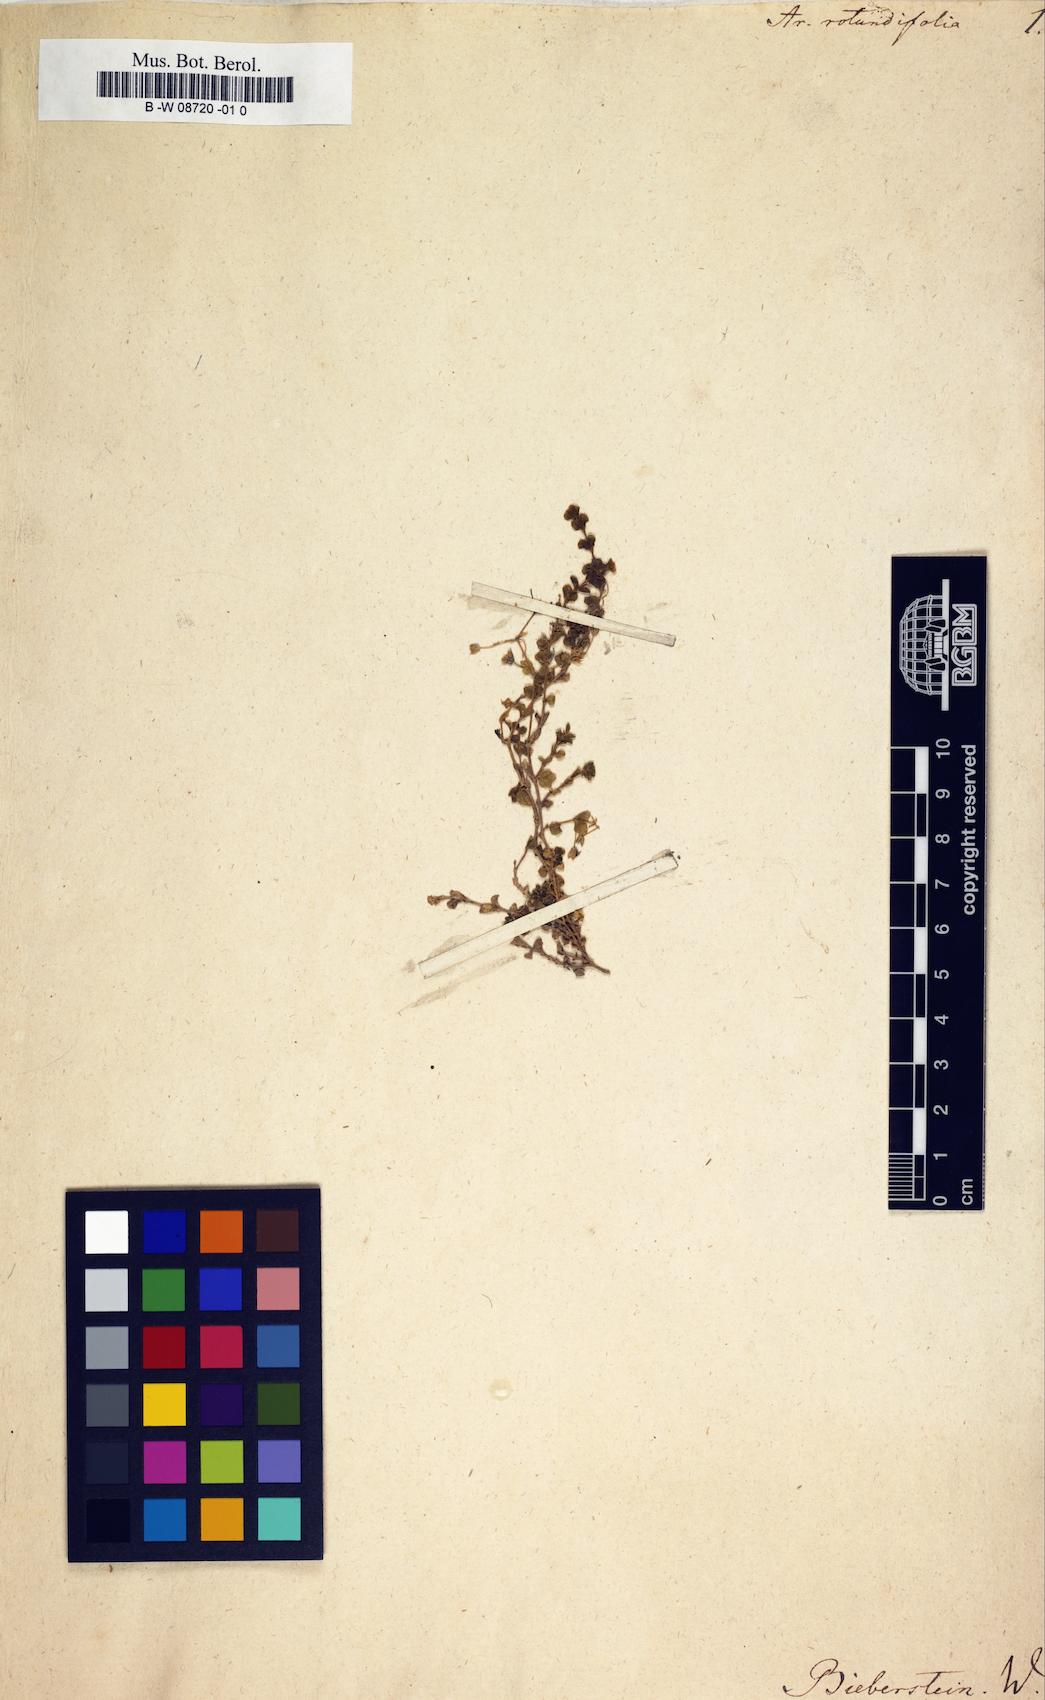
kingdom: Plantae
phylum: Tracheophyta
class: Magnoliopsida
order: Caryophyllales
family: Caryophyllaceae
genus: Arenaria
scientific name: Arenaria rotundifolia
